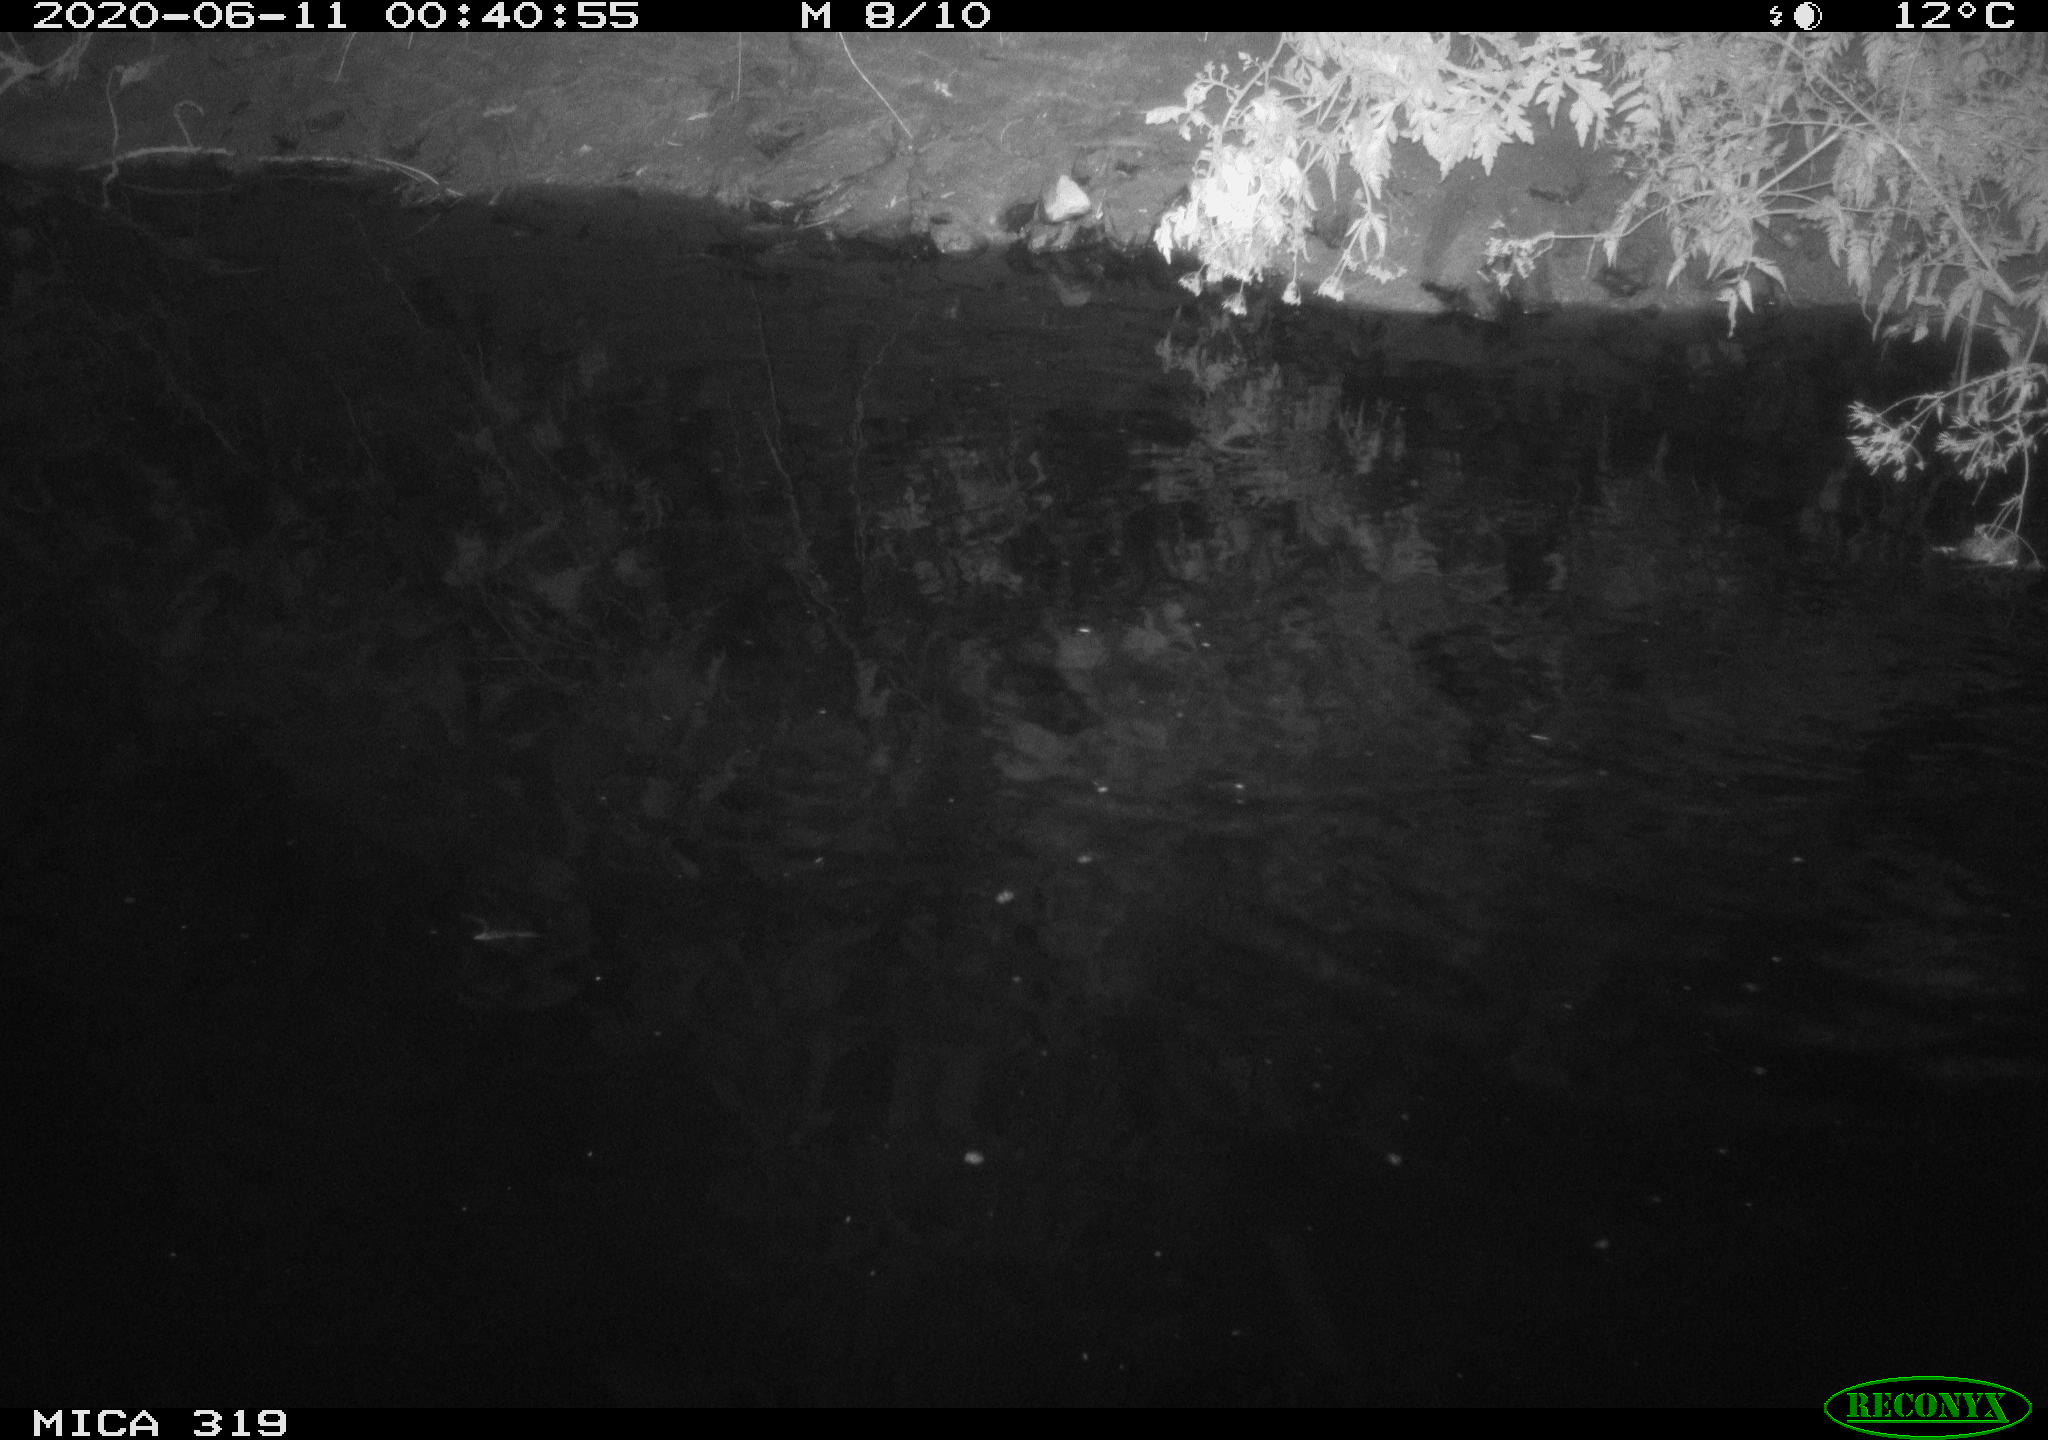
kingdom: Animalia
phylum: Chordata
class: Aves
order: Gruiformes
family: Rallidae
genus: Gallinula
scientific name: Gallinula chloropus
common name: Common moorhen
